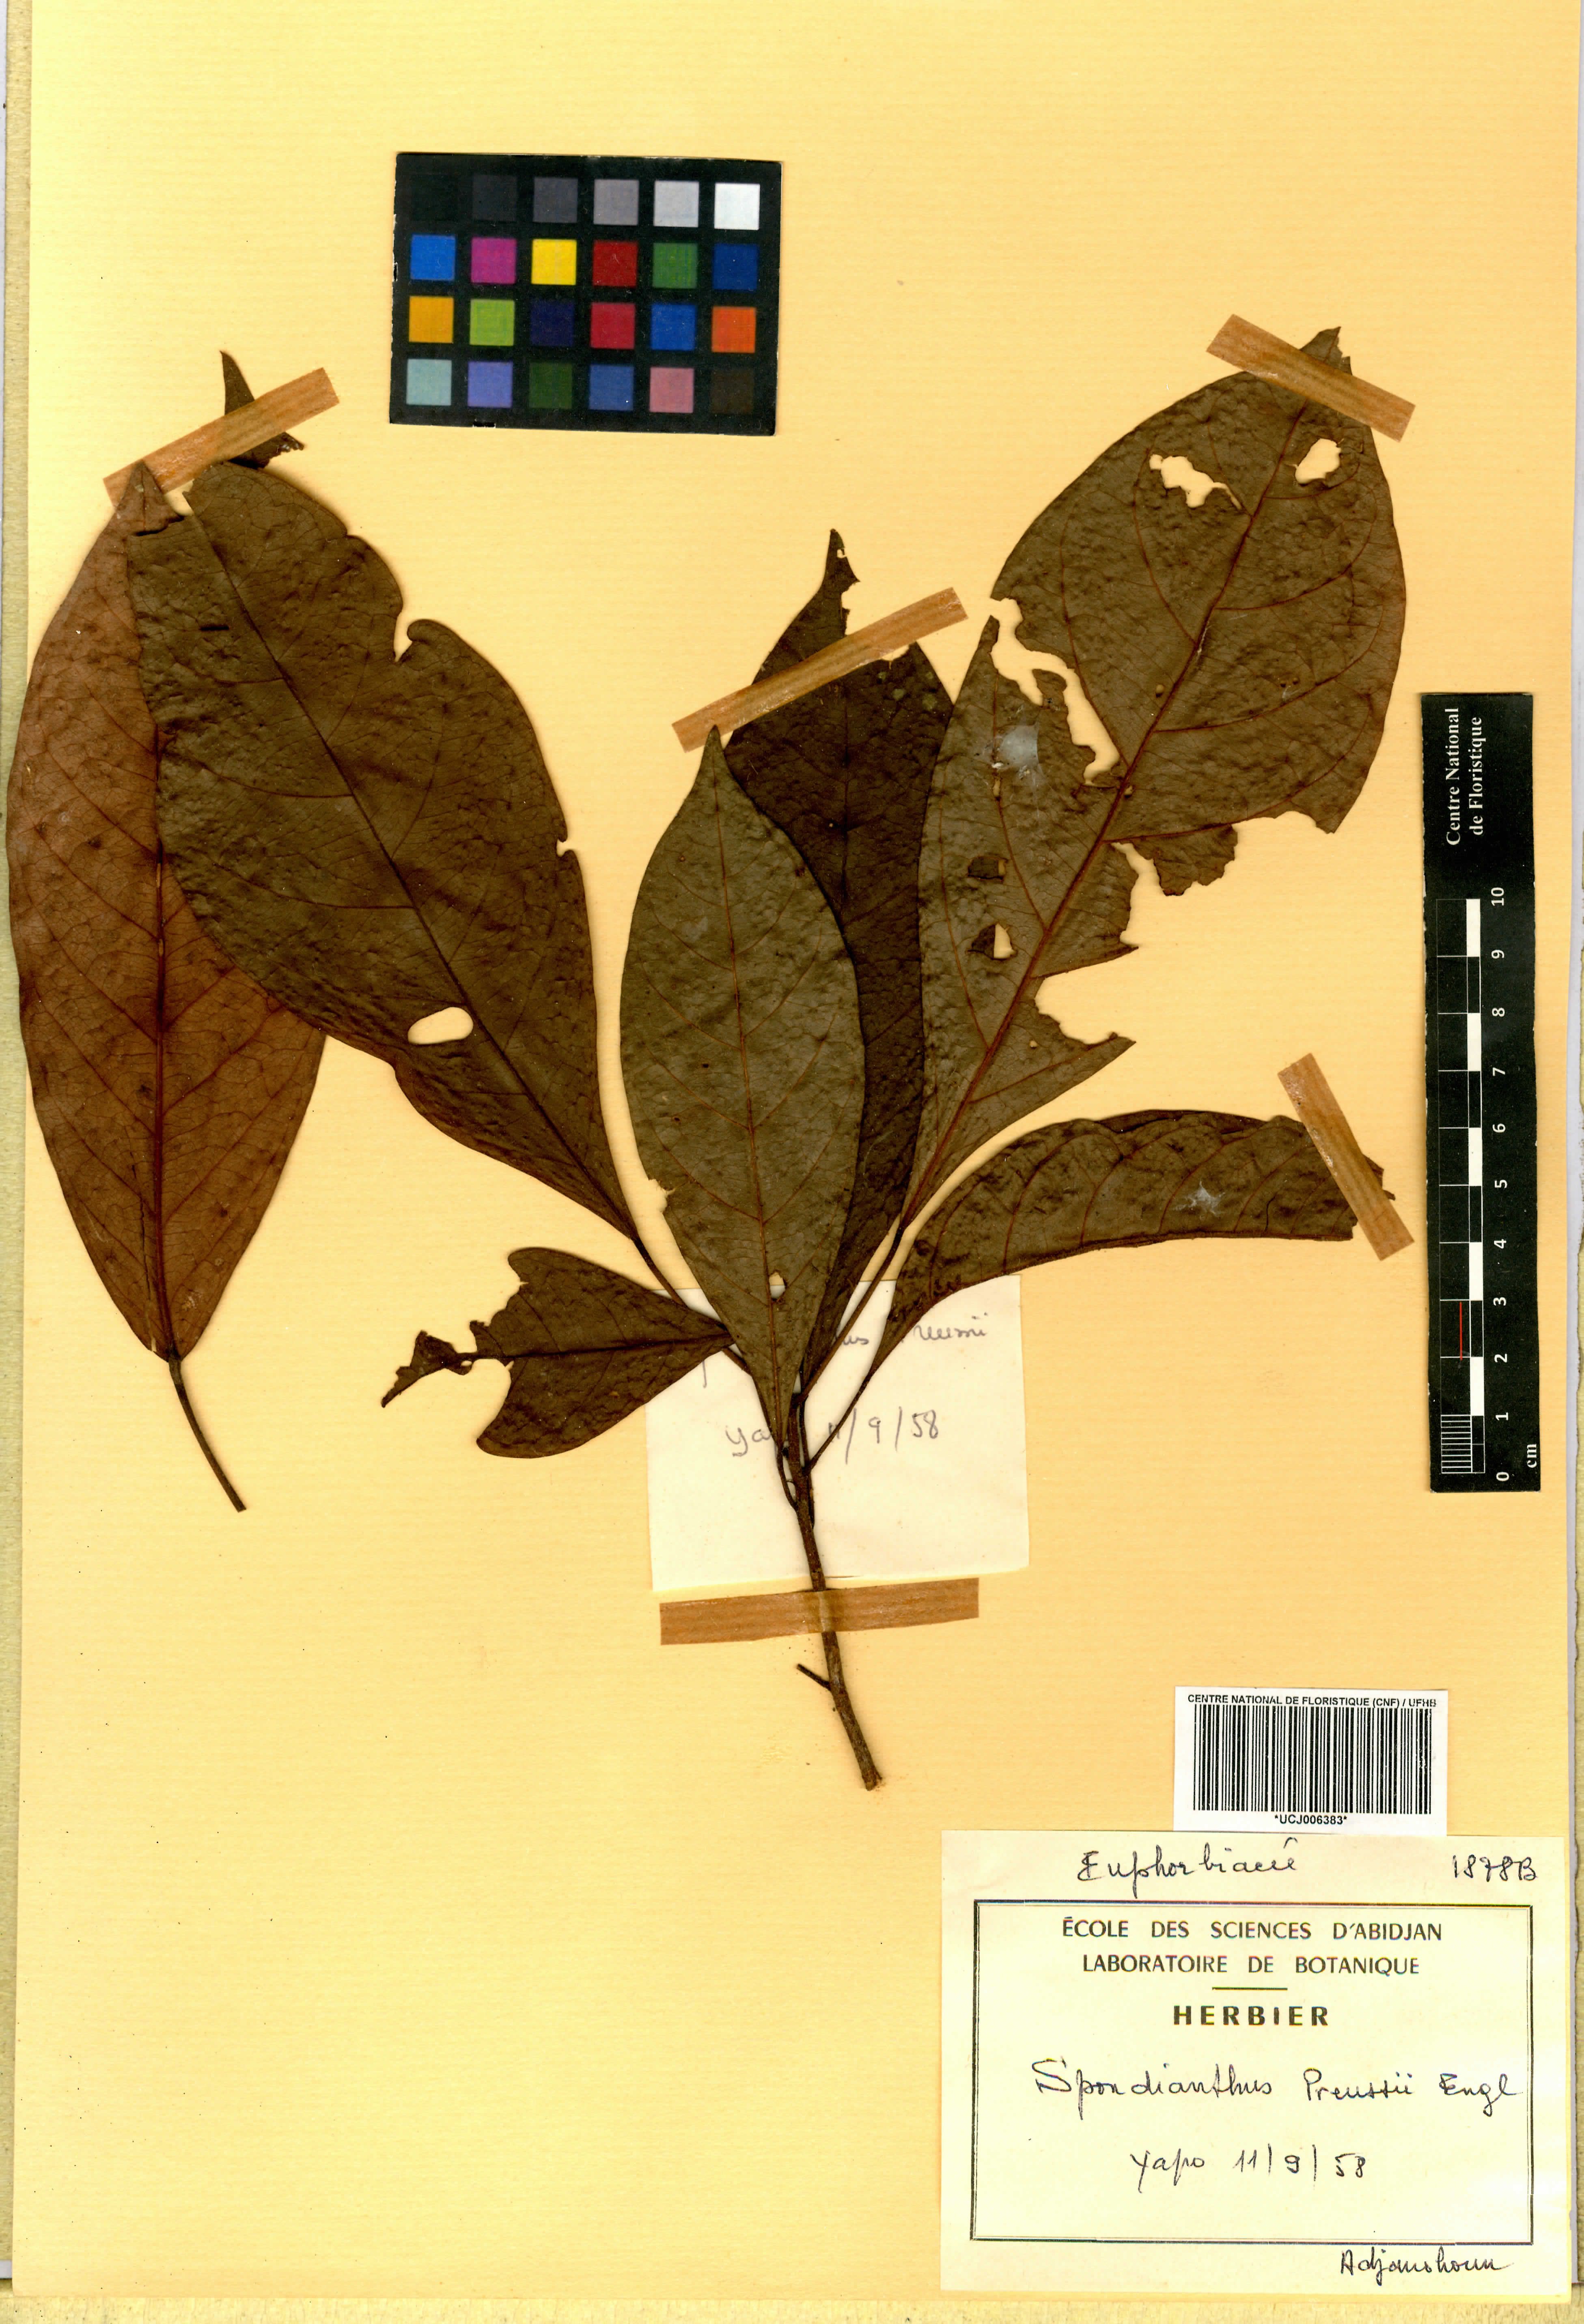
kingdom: Plantae
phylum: Tracheophyta
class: Magnoliopsida
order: Malpighiales
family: Phyllanthaceae
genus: Spondianthus
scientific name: Spondianthus preussii
